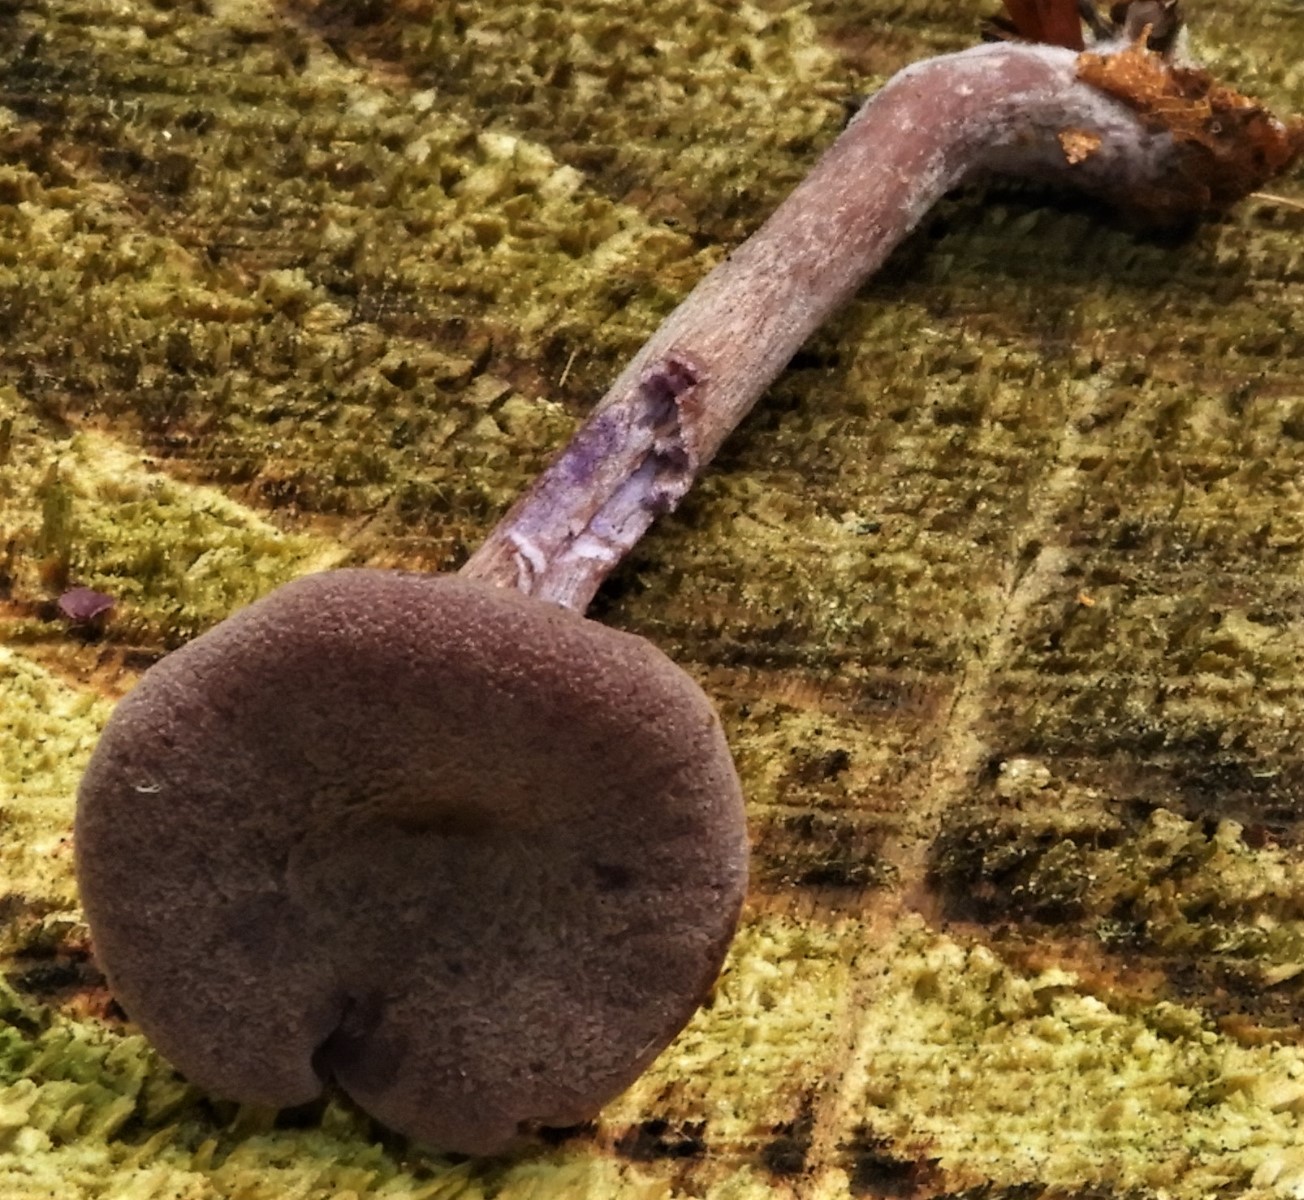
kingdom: Fungi
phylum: Basidiomycota
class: Agaricomycetes
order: Agaricales
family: Hydnangiaceae
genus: Laccaria
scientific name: Laccaria amethystina
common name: violet ametysthat
